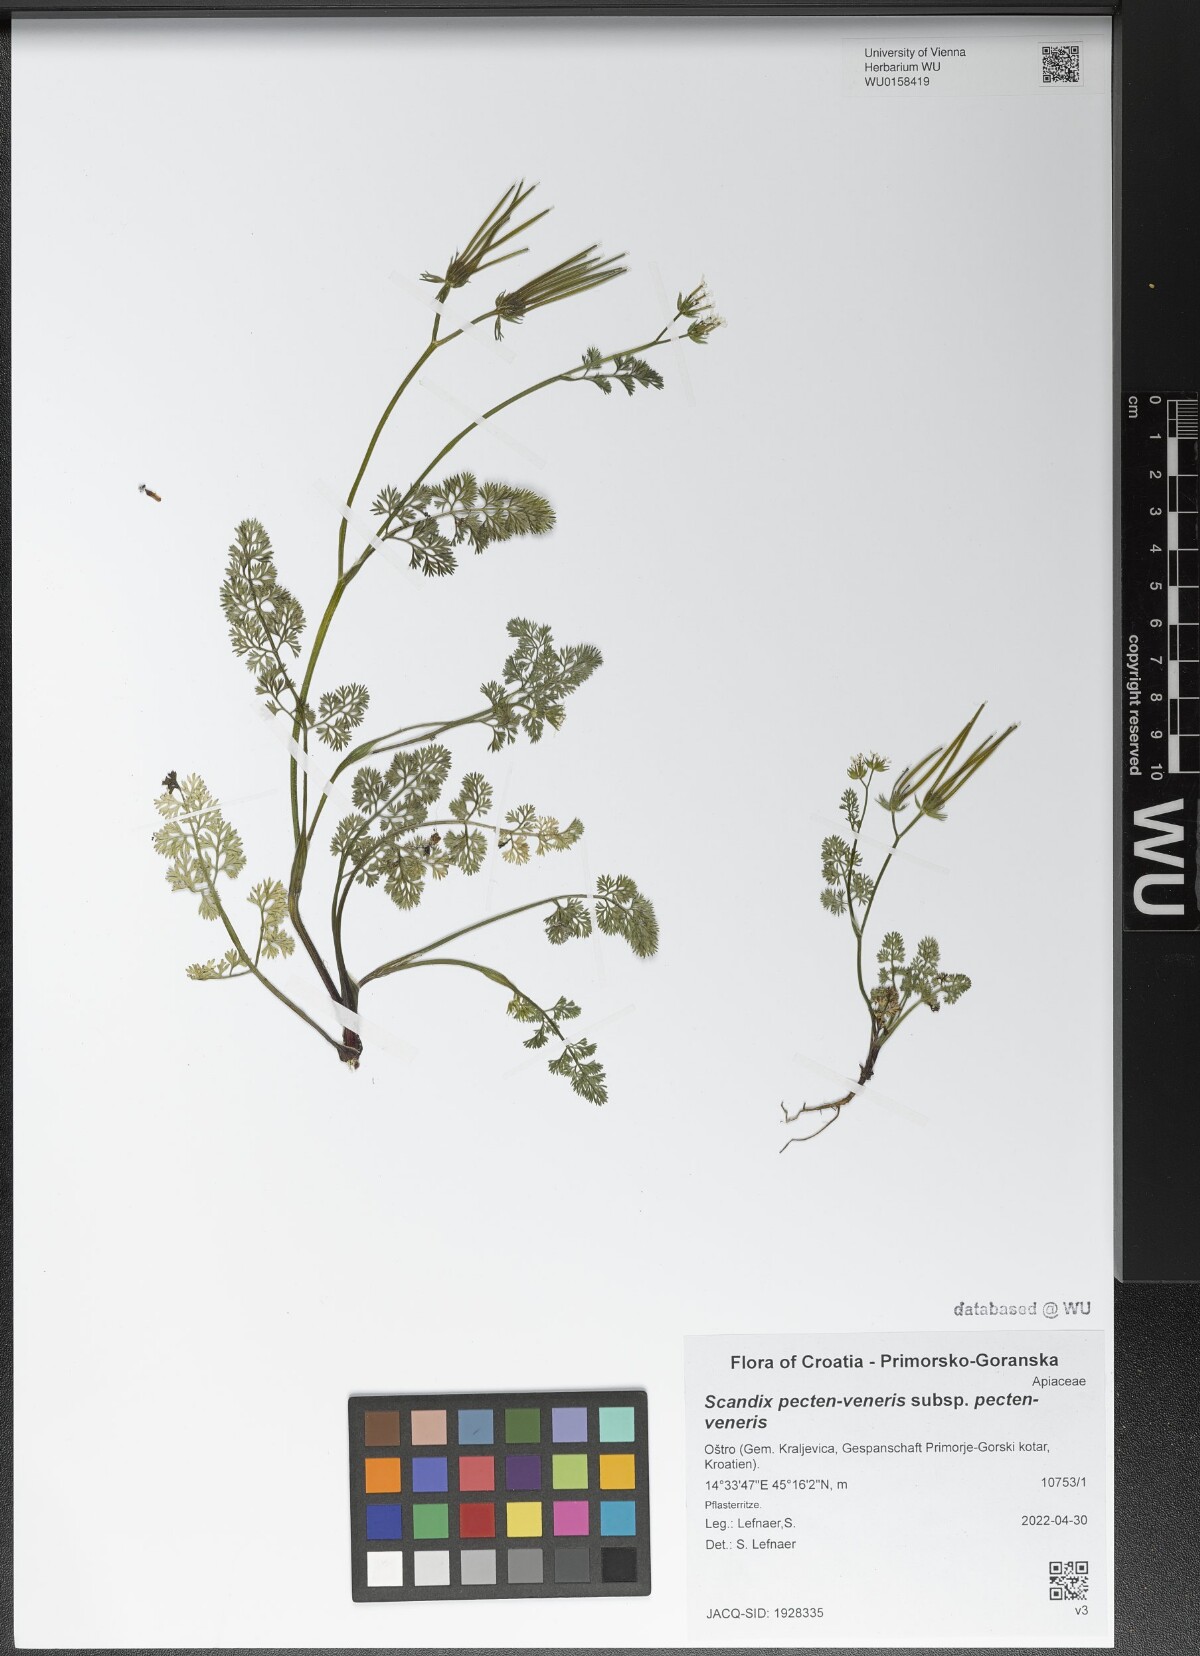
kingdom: Plantae
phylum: Tracheophyta
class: Magnoliopsida
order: Apiales
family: Apiaceae
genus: Scandix
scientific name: Scandix pecten-veneris
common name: Shepherd's-needle
